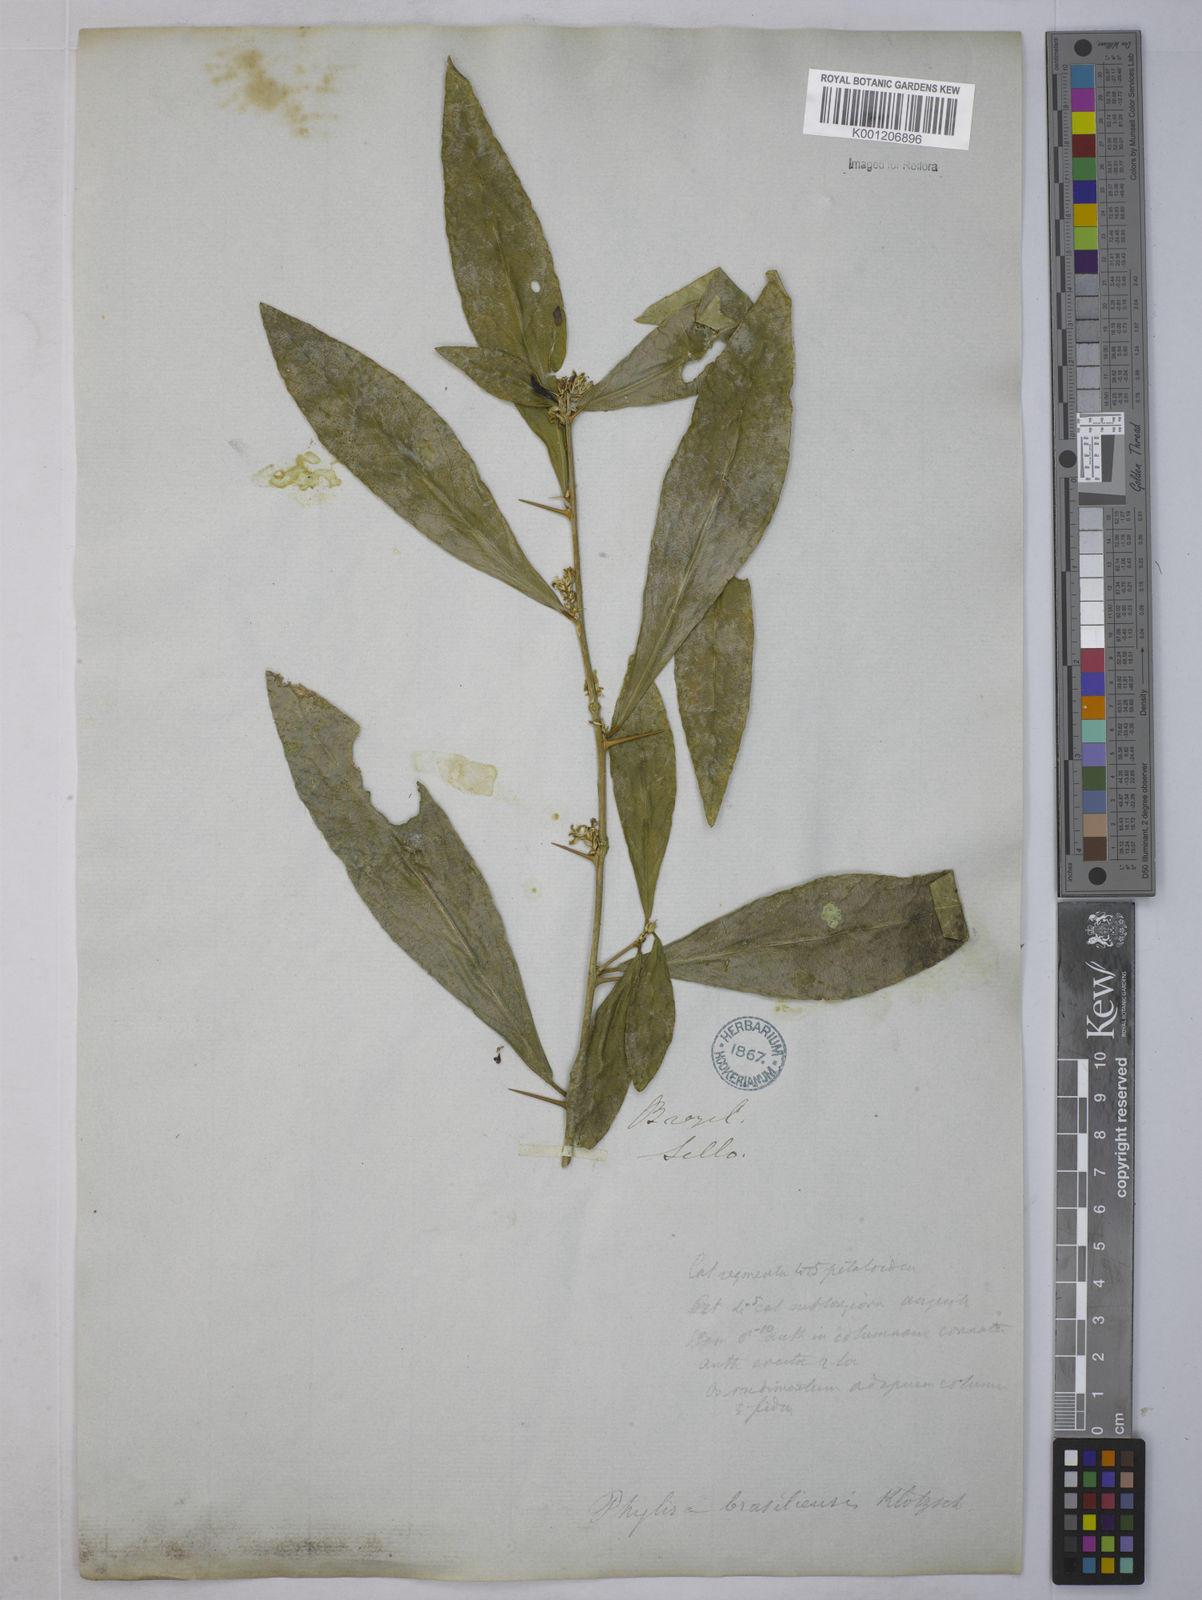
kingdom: Plantae
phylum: Tracheophyta
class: Magnoliopsida
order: Malpighiales
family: Euphorbiaceae
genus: Philyra
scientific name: Philyra brasiliensis
